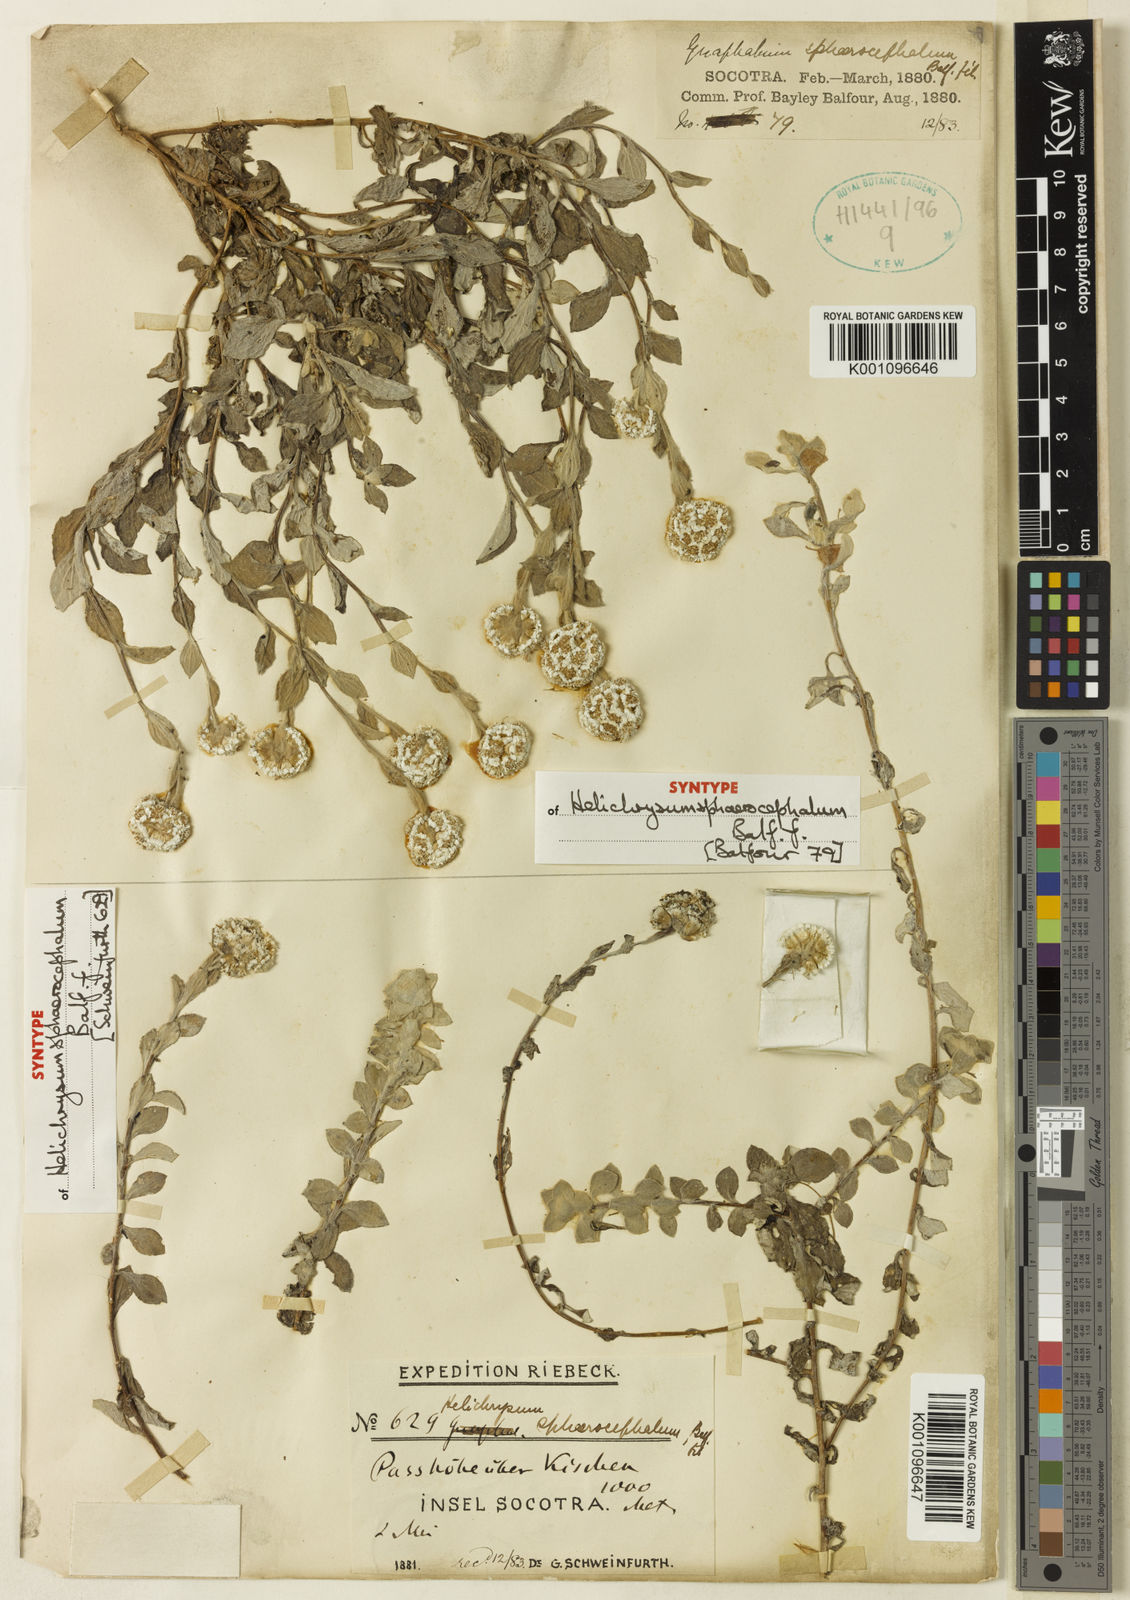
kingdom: Plantae
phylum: Tracheophyta
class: Magnoliopsida
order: Asterales
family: Asteraceae
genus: Libinhania
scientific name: Libinhania sphaerocephala
